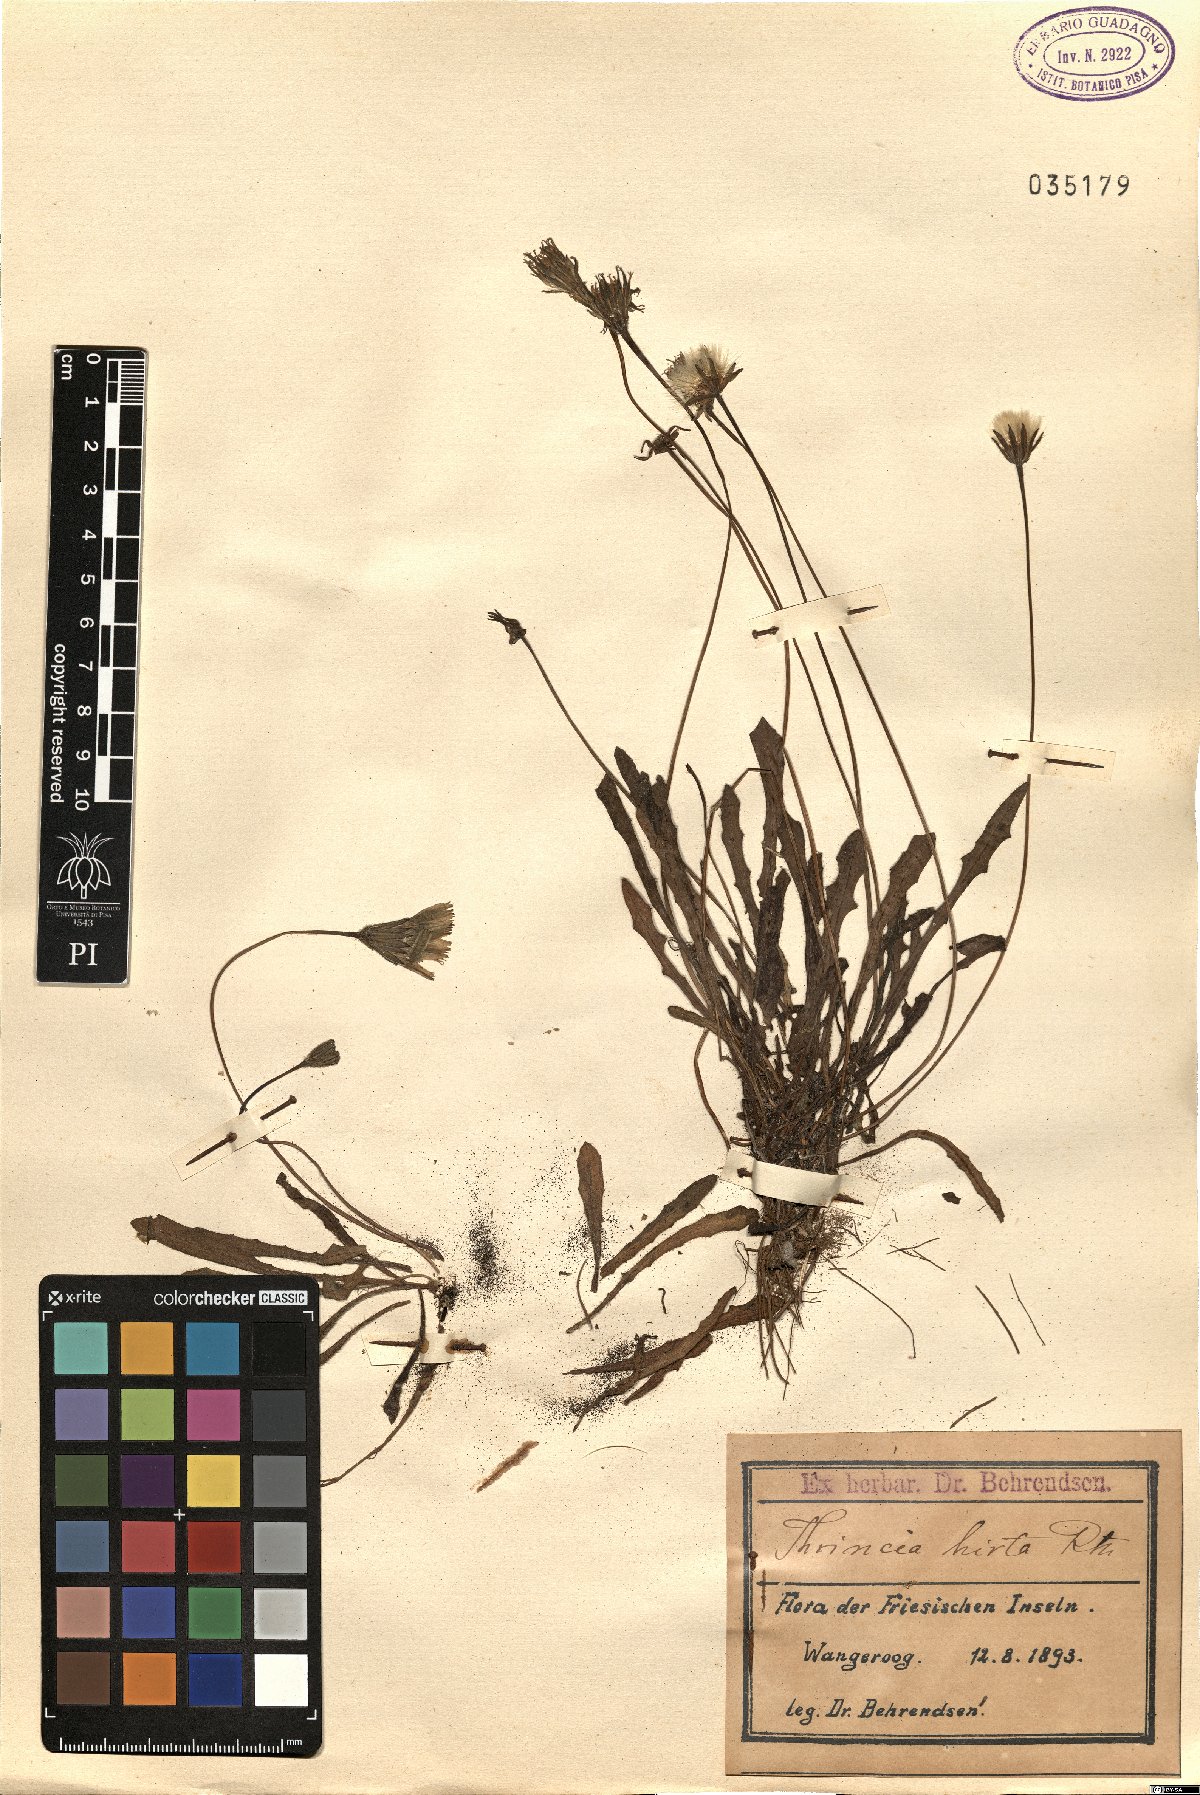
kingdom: Plantae
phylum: Tracheophyta
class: Magnoliopsida
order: Asterales
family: Asteraceae
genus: Thrincia
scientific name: Thrincia saxatilis
